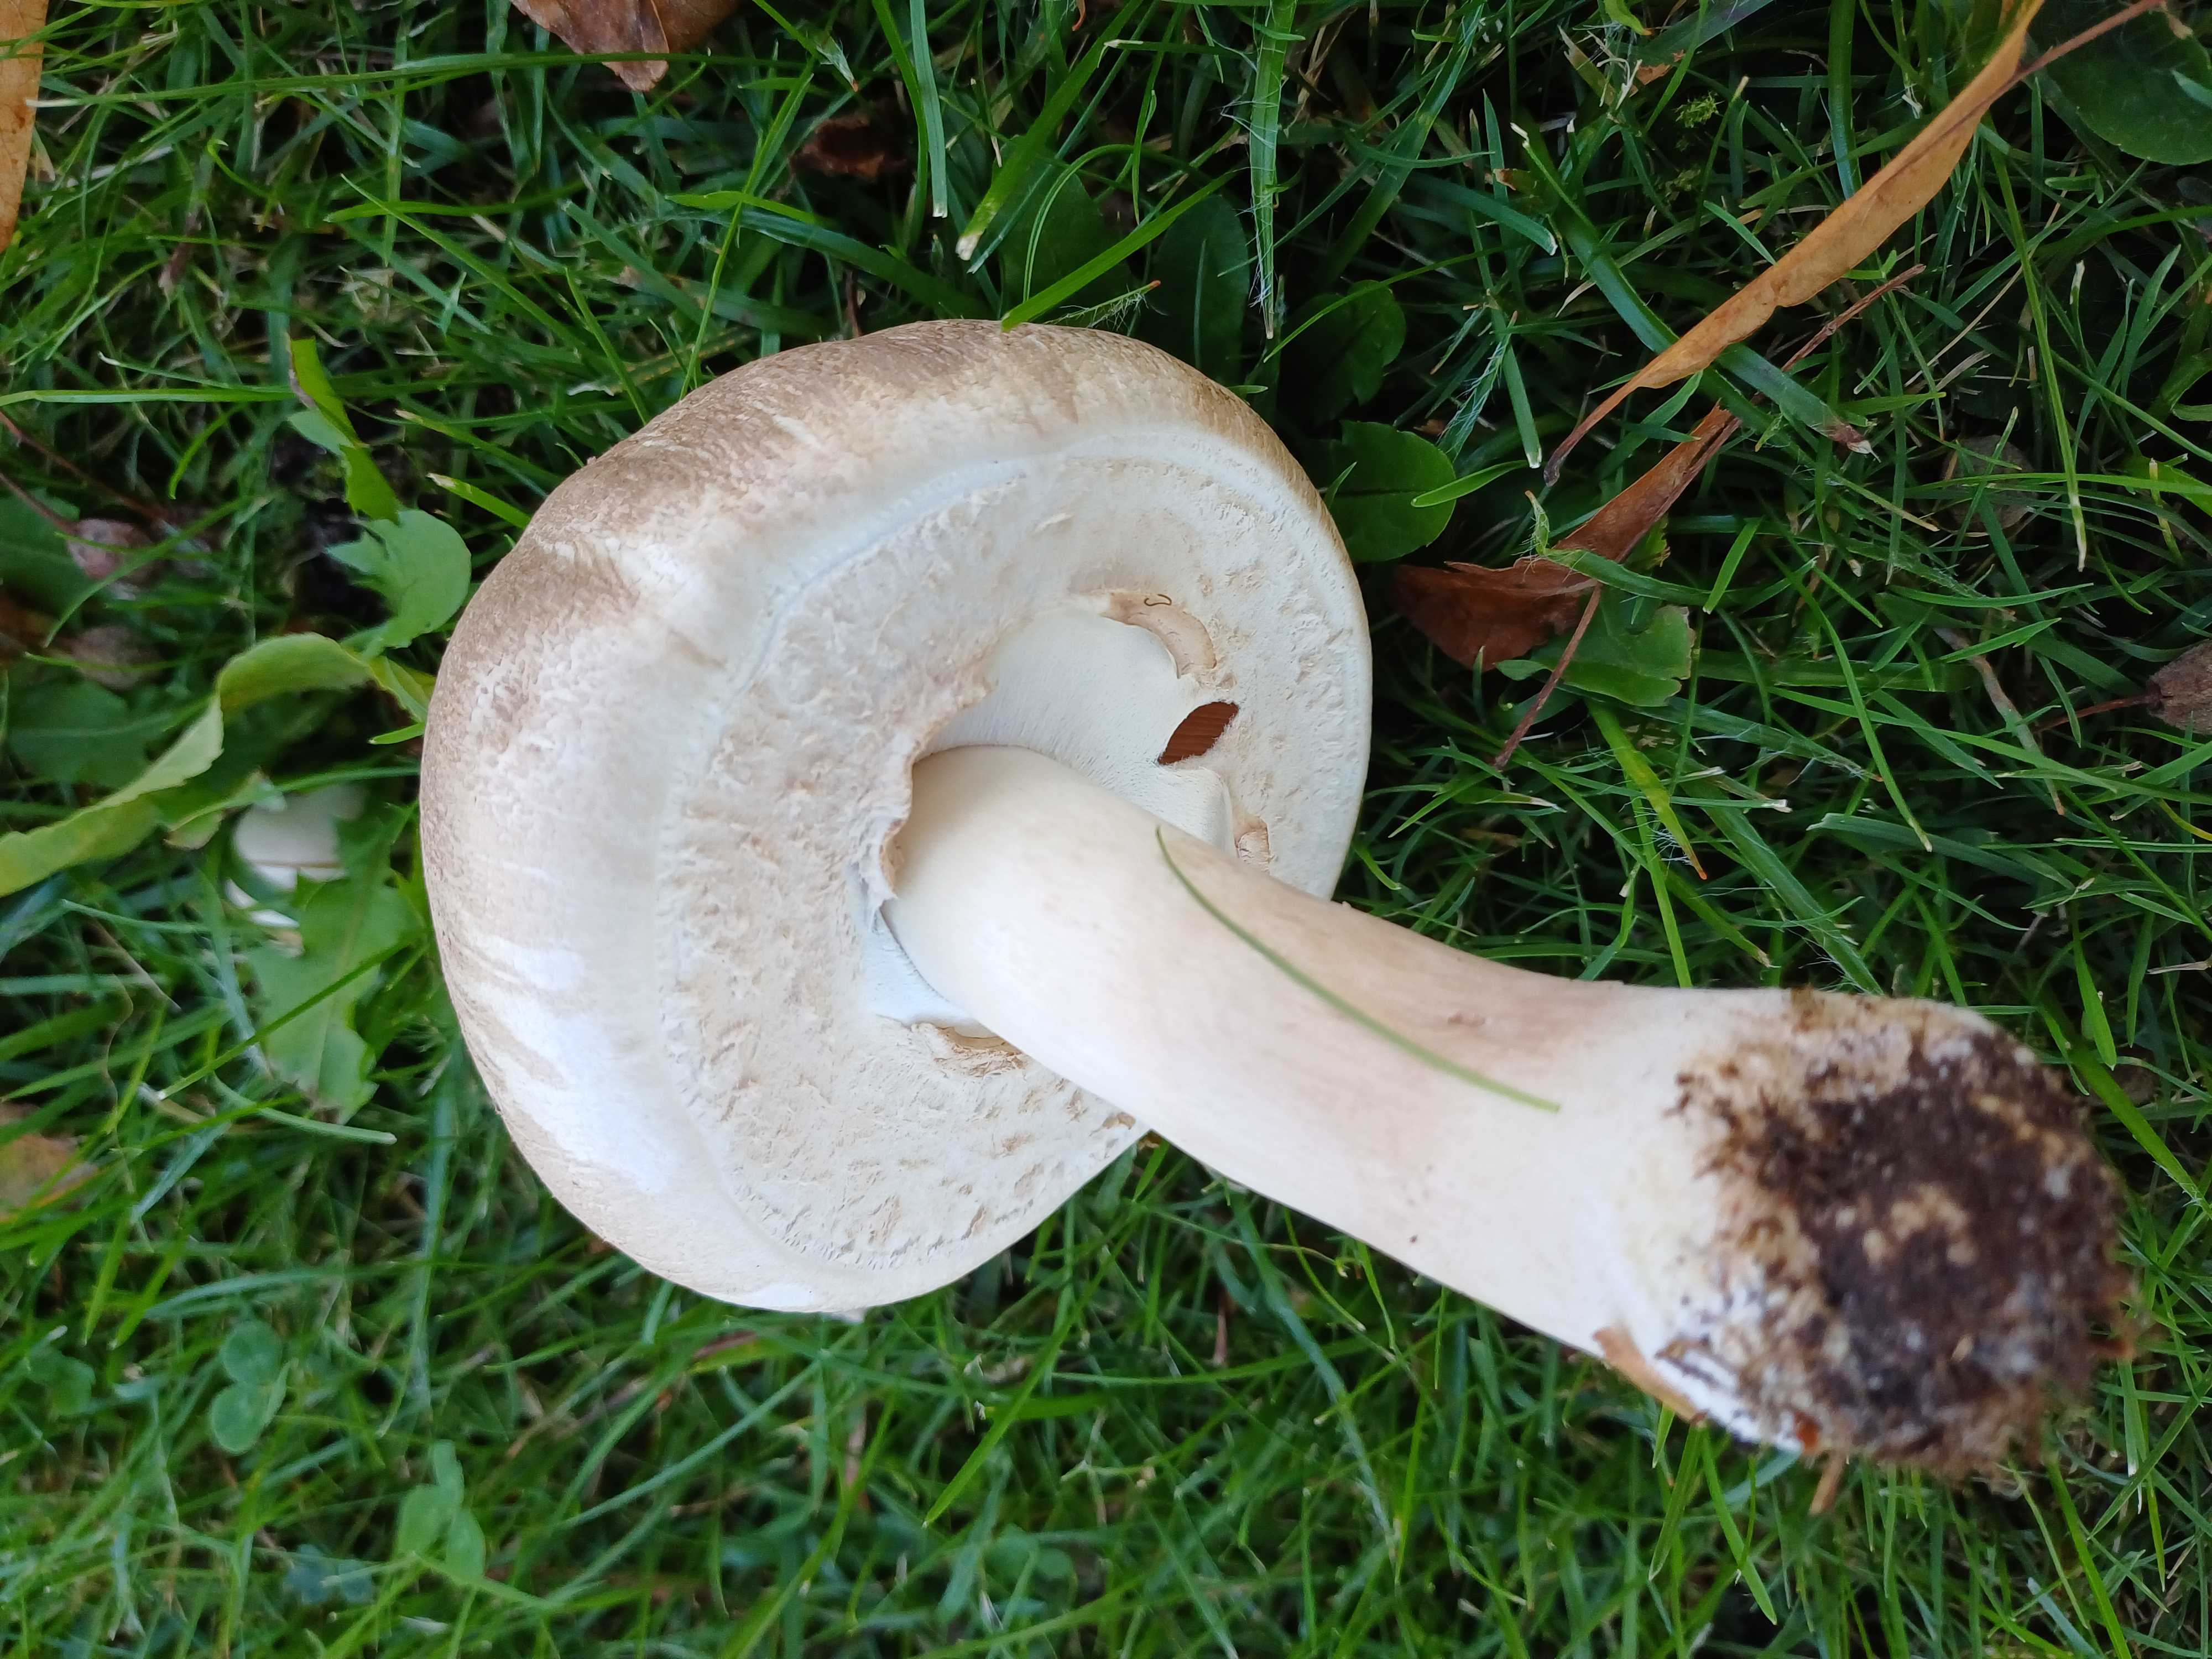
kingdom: Fungi
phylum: Basidiomycota
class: Agaricomycetes
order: Agaricales
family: Agaricaceae
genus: Agaricus
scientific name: Agaricus xanthodermus
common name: karbol-champignon
